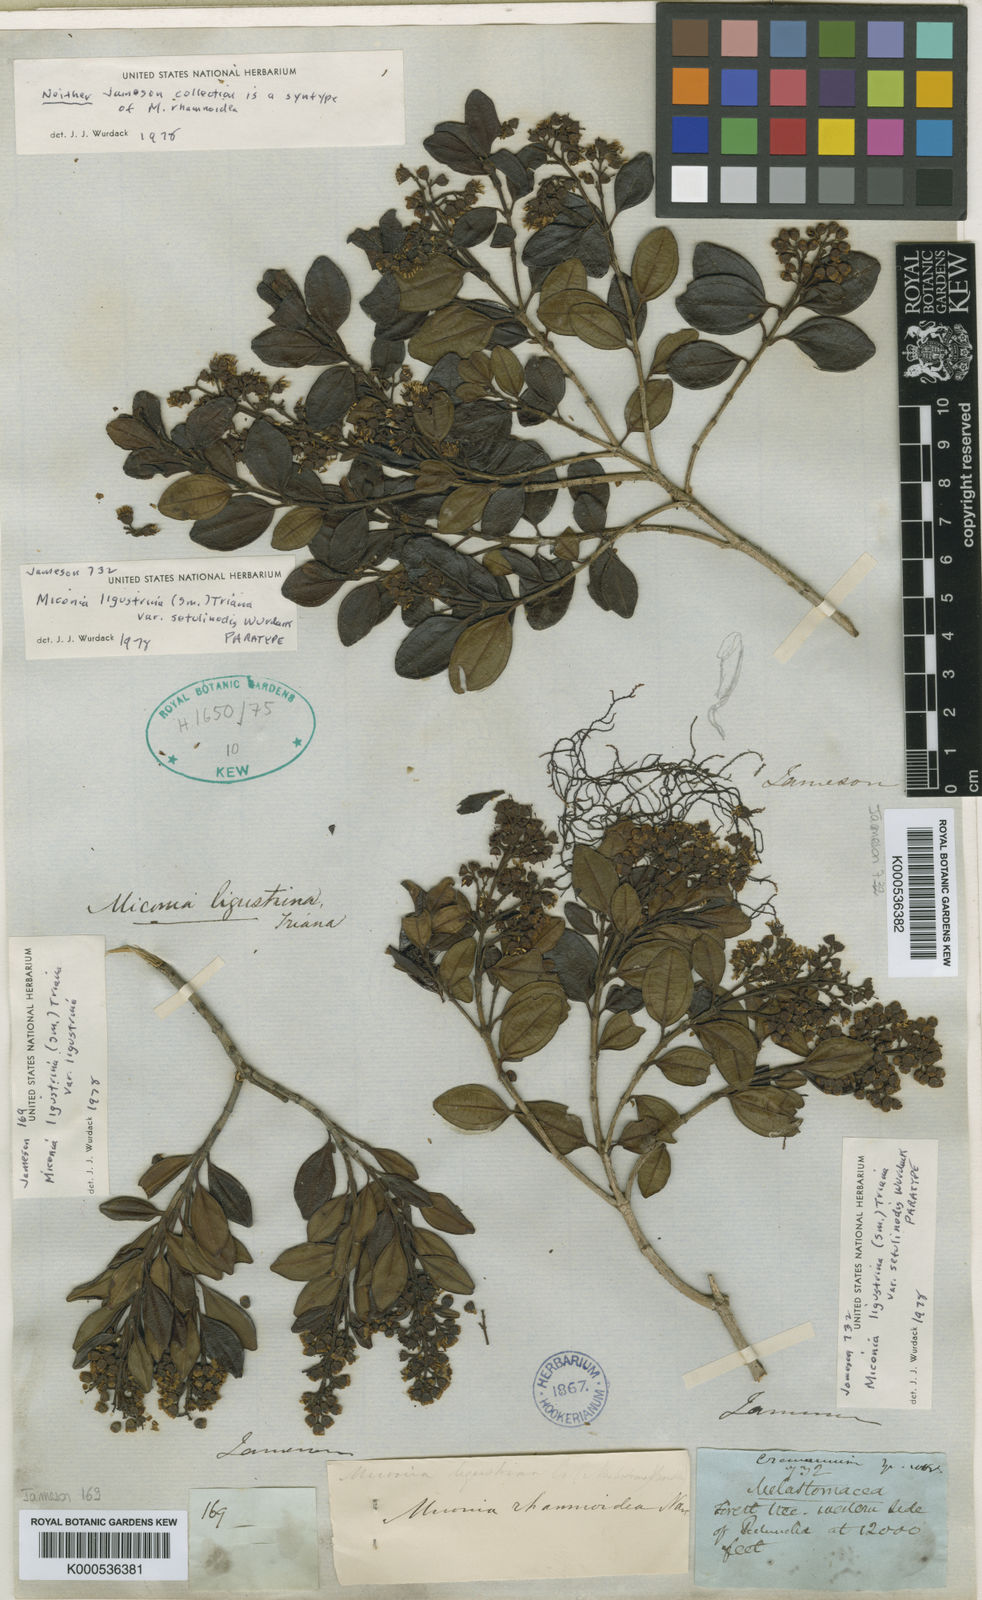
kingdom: Plantae
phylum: Tracheophyta
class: Magnoliopsida
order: Myrtales
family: Melastomataceae
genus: Miconia
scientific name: Miconia ligustrina
